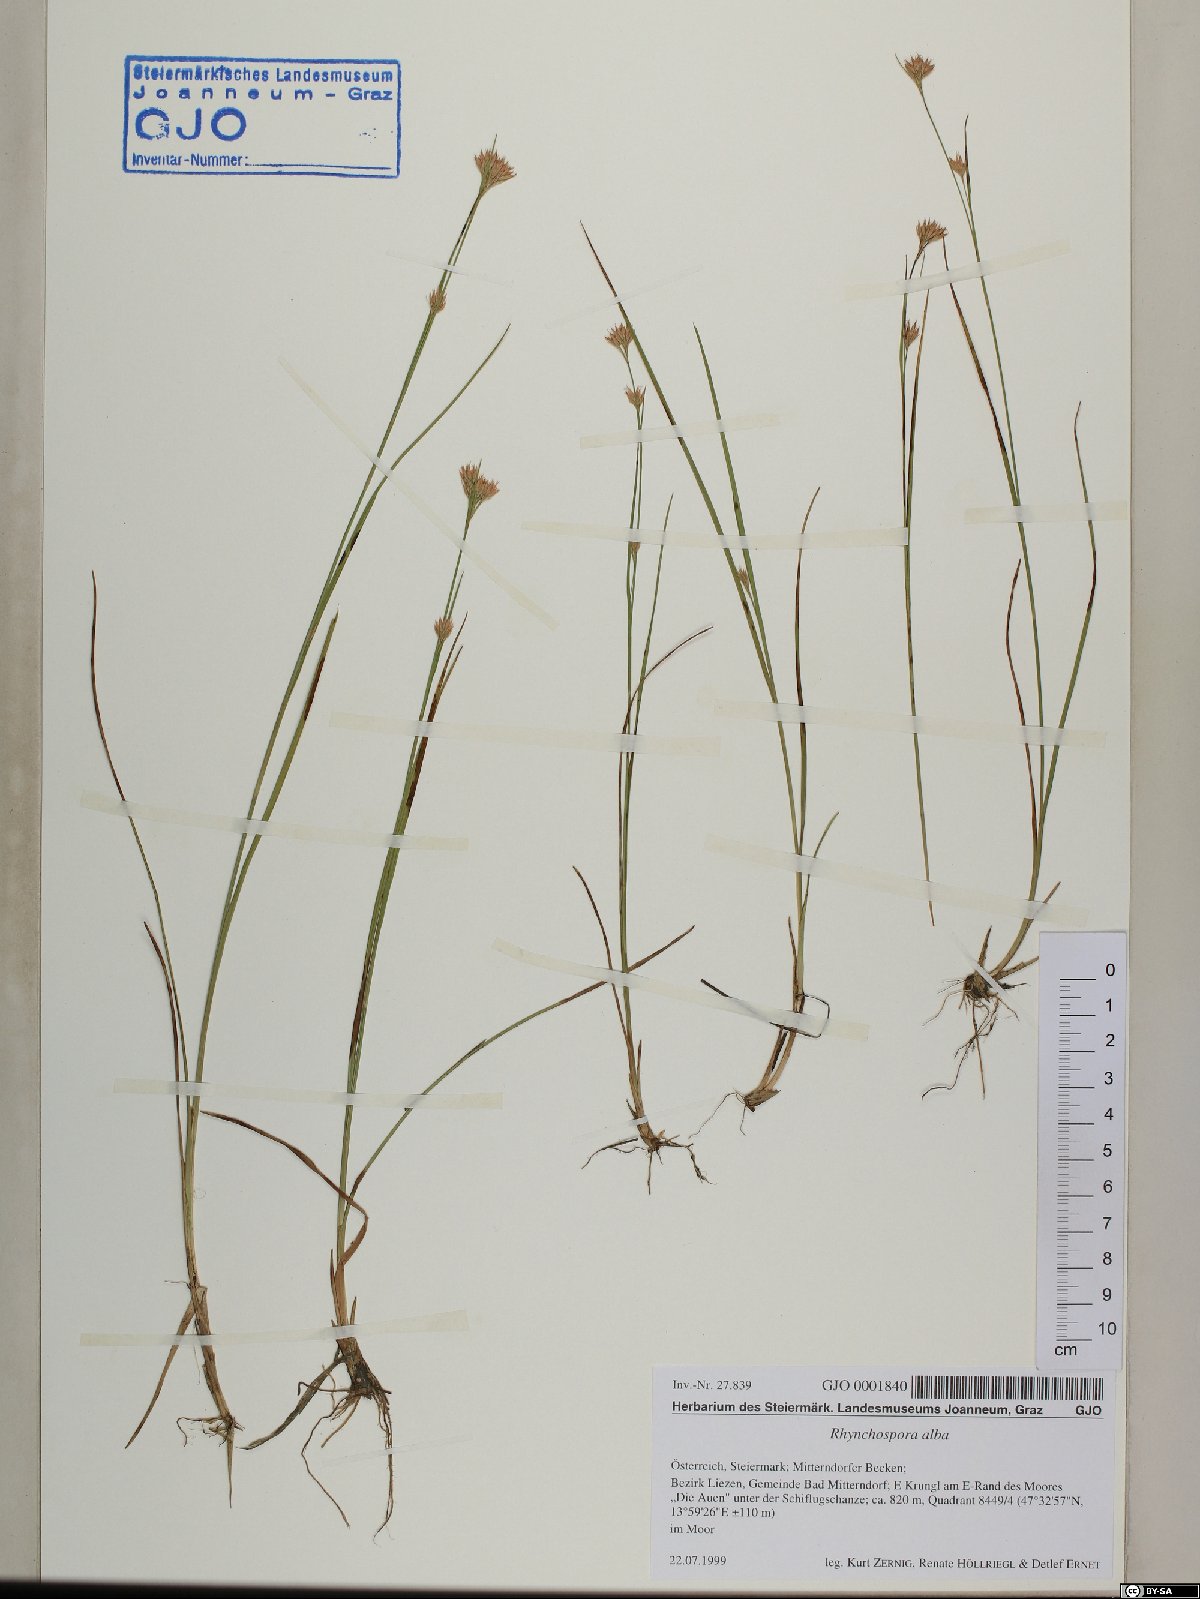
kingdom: Plantae
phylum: Tracheophyta
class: Liliopsida
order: Poales
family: Cyperaceae
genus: Rhynchospora
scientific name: Rhynchospora alba
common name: White beak-sedge
